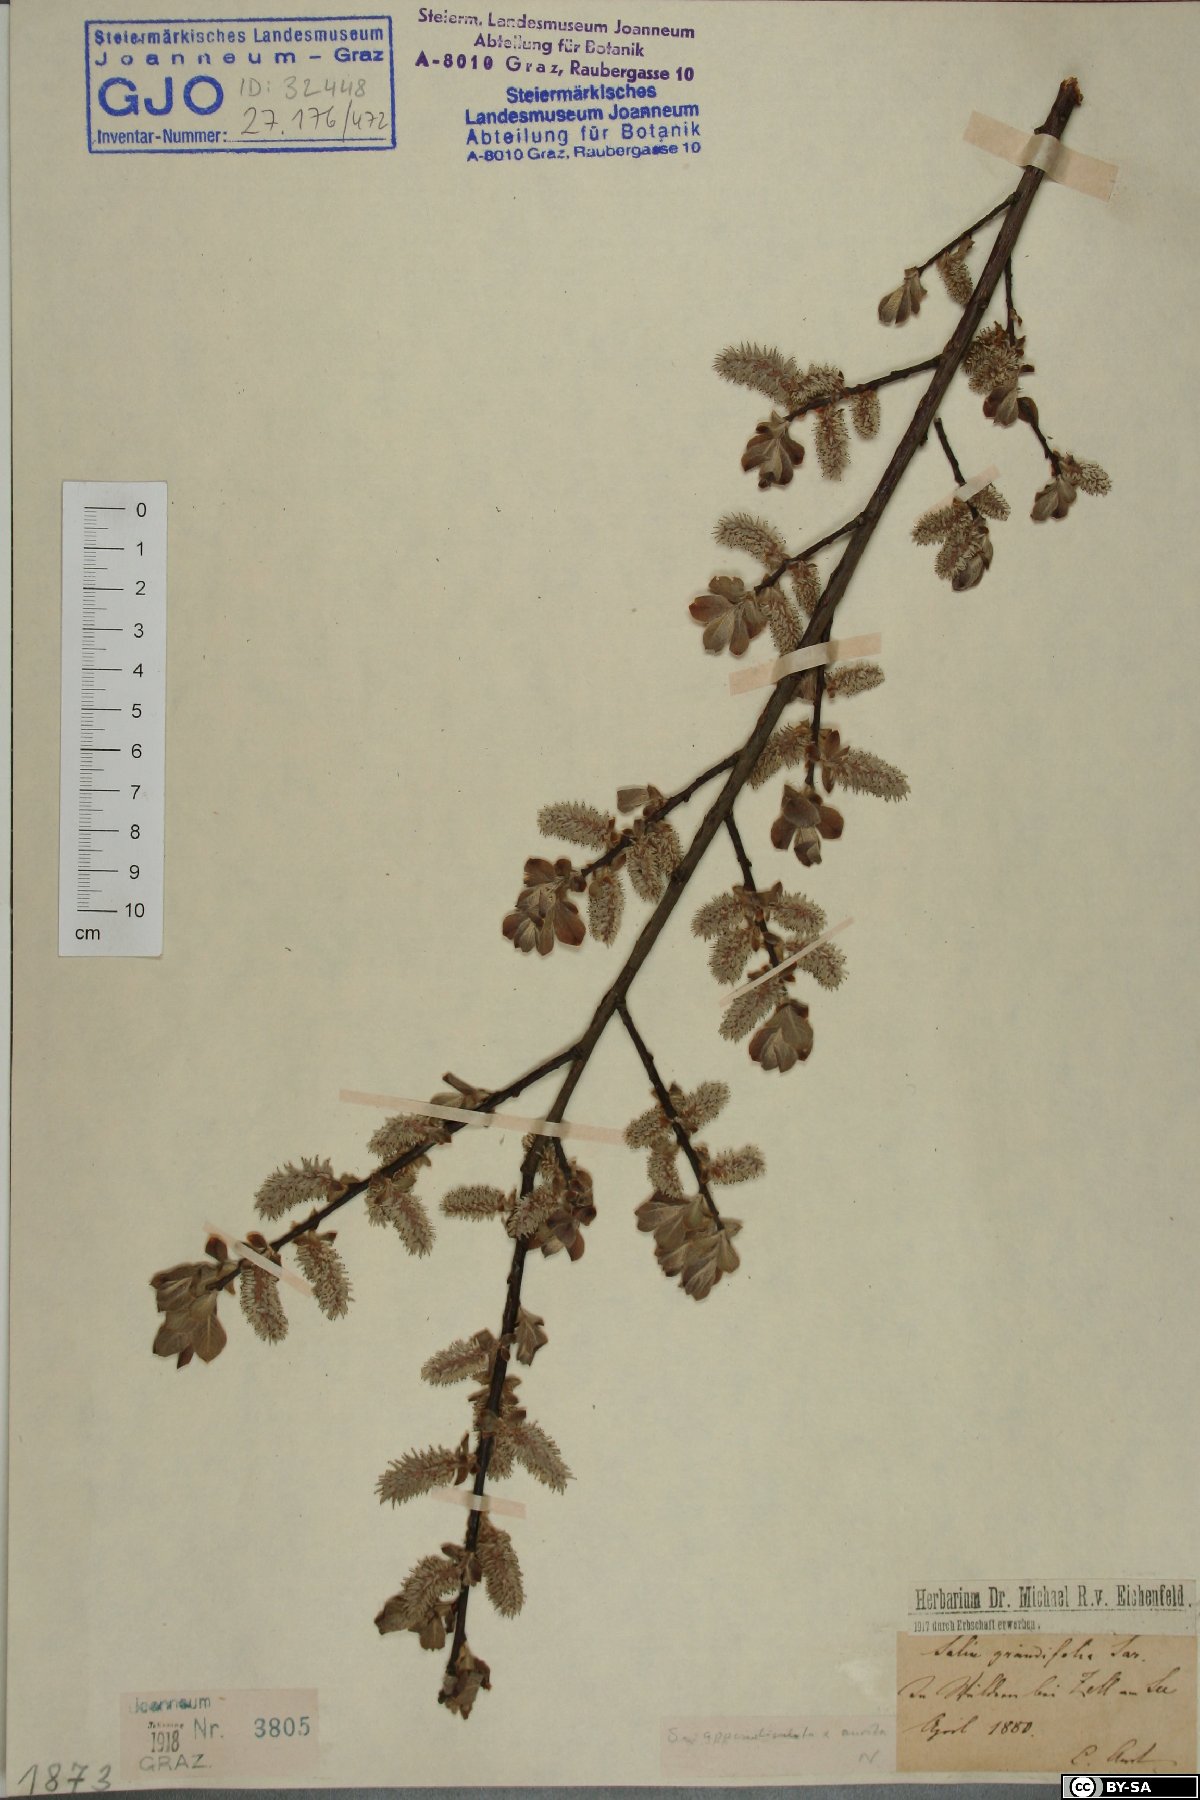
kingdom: Plantae
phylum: Tracheophyta
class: Magnoliopsida
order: Malpighiales
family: Salicaceae
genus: Salix
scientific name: Salix appendiculata
